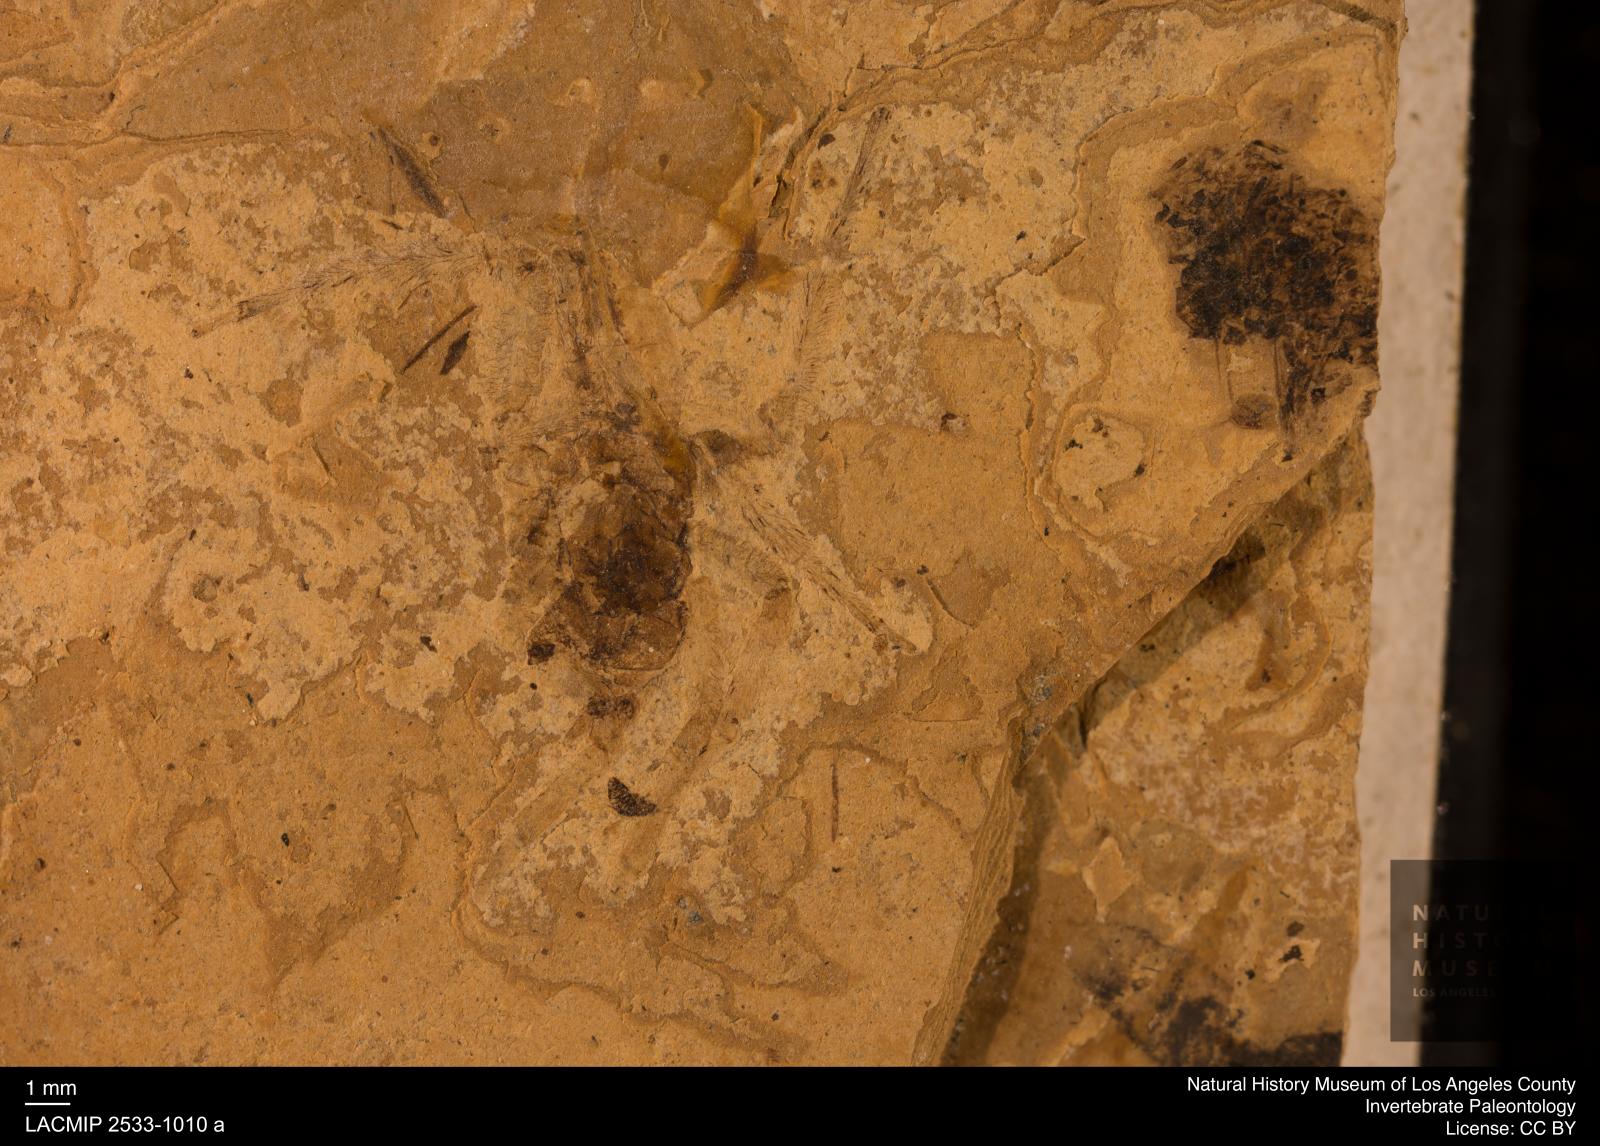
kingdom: Animalia
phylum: Arthropoda
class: Arachnida
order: Araneae
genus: Elvina
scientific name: Elvina Argyroneta antiqua
